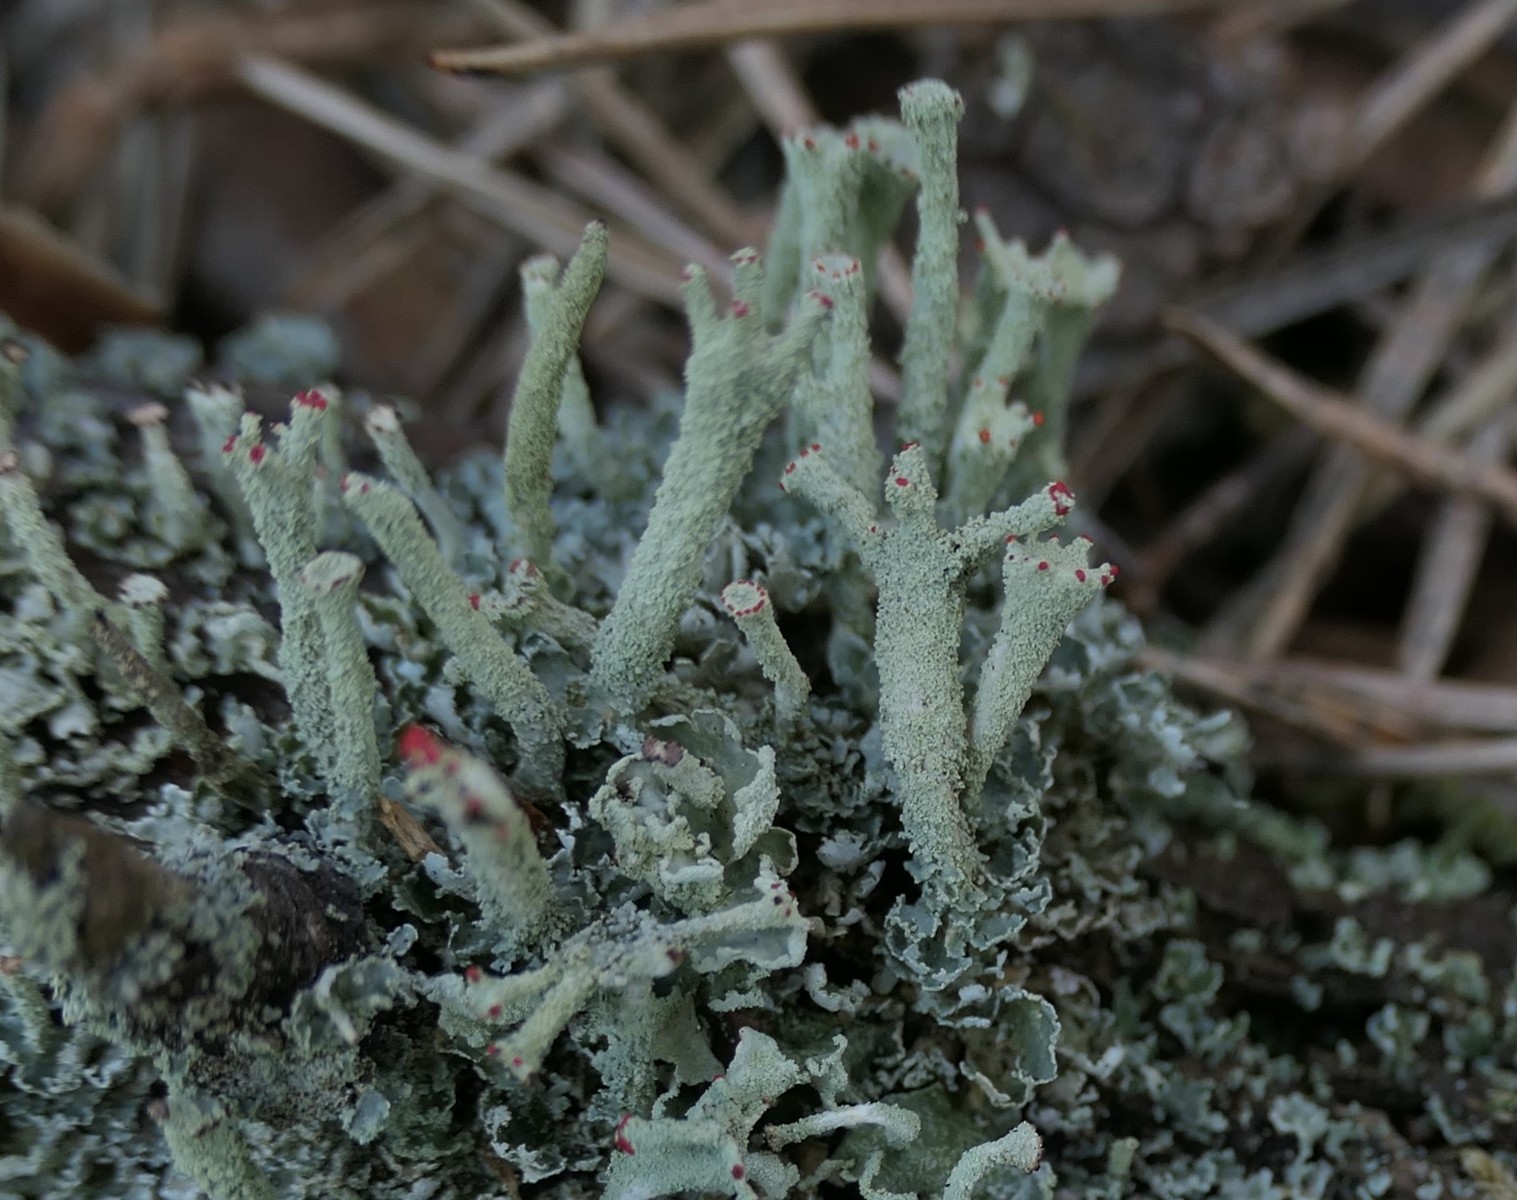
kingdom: Fungi
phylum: Ascomycota
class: Lecanoromycetes
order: Lecanorales
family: Cladoniaceae
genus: Cladonia
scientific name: Cladonia digitata
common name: finger-bægerlav
